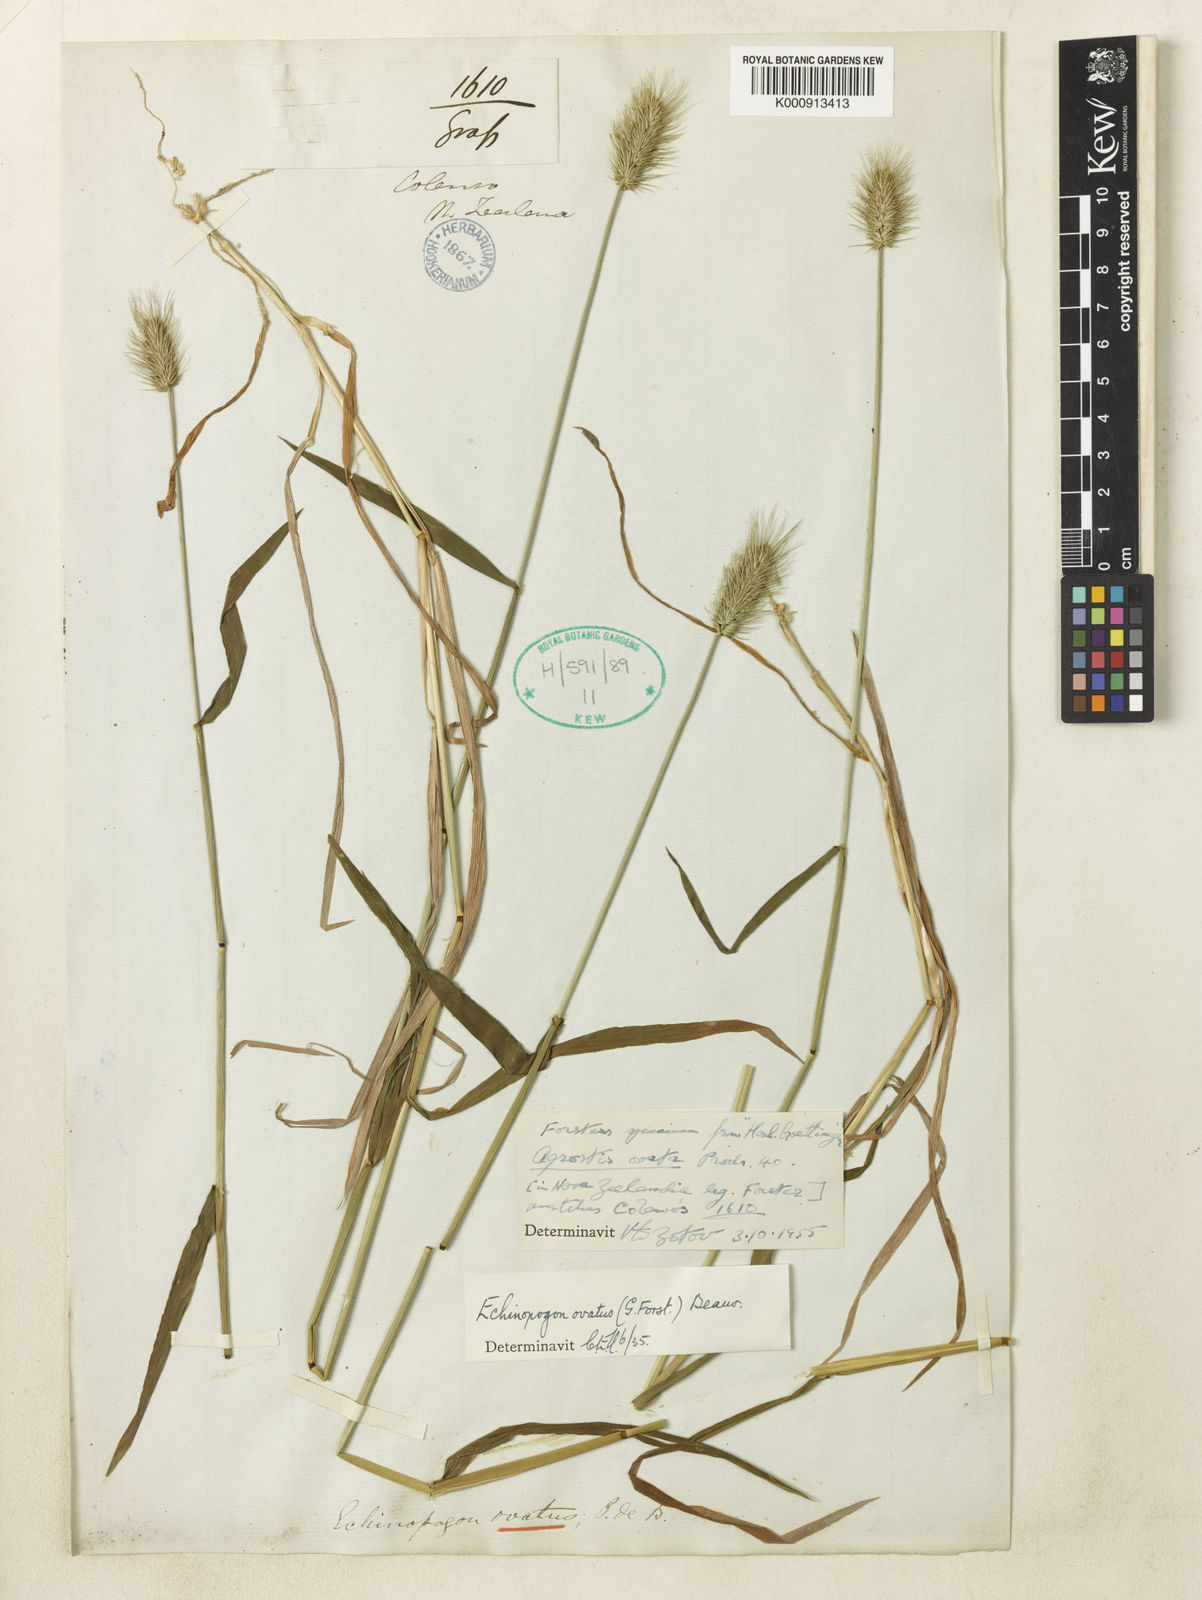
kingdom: Plantae
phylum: Tracheophyta
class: Liliopsida
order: Poales
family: Poaceae
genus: Echinopogon
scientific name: Echinopogon ovatus
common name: Hedgehog-grass
